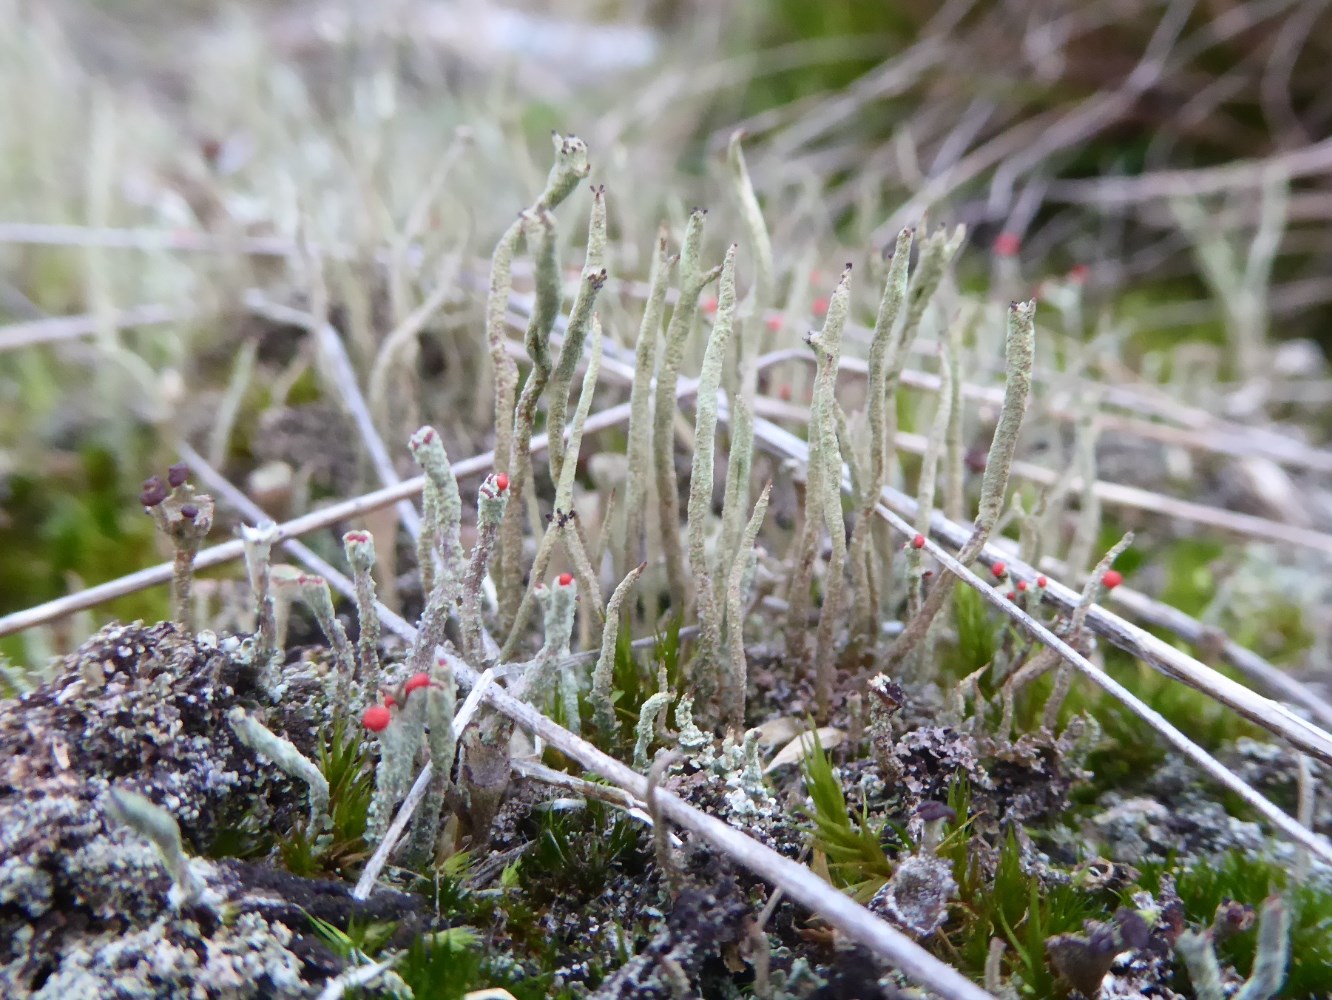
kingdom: Fungi
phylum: Ascomycota
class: Lecanoromycetes
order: Lecanorales
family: Cladoniaceae
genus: Cladonia
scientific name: Cladonia macilenta
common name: indsvunden bægerlav
